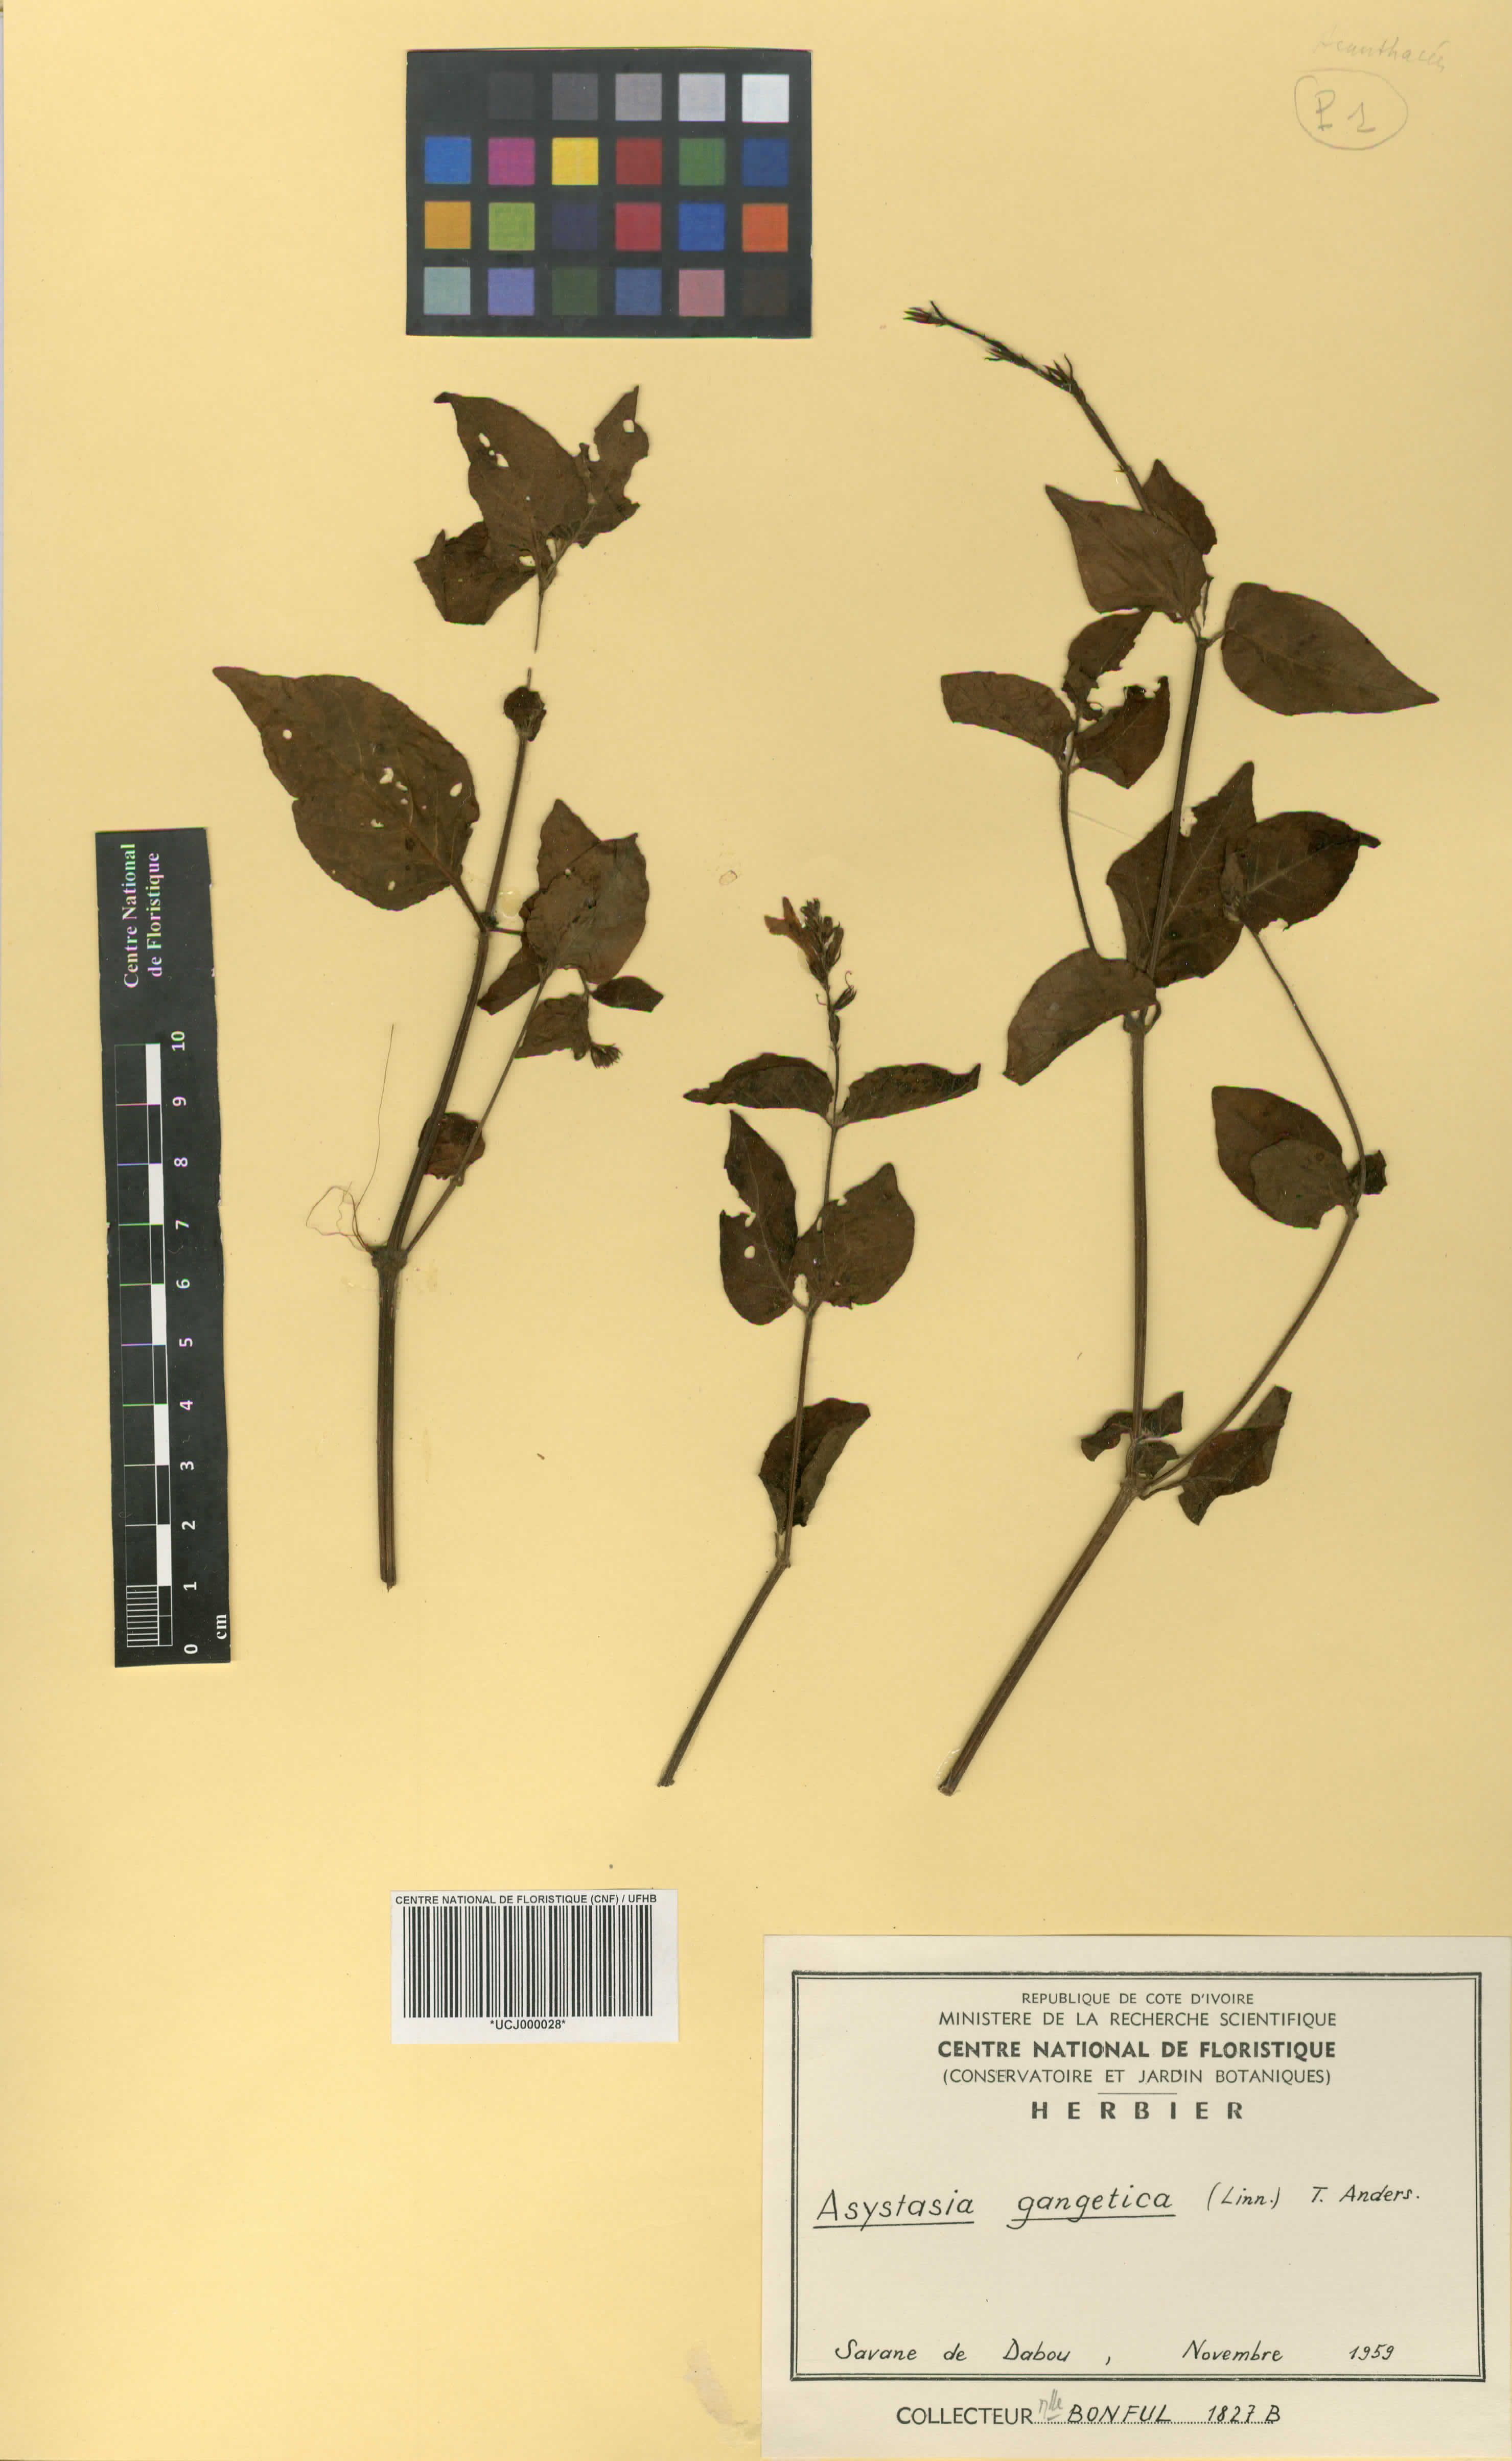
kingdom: Plantae
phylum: Tracheophyta
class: Magnoliopsida
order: Lamiales
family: Acanthaceae
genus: Asystasia
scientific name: Asystasia gangetica
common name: Chinese violet
